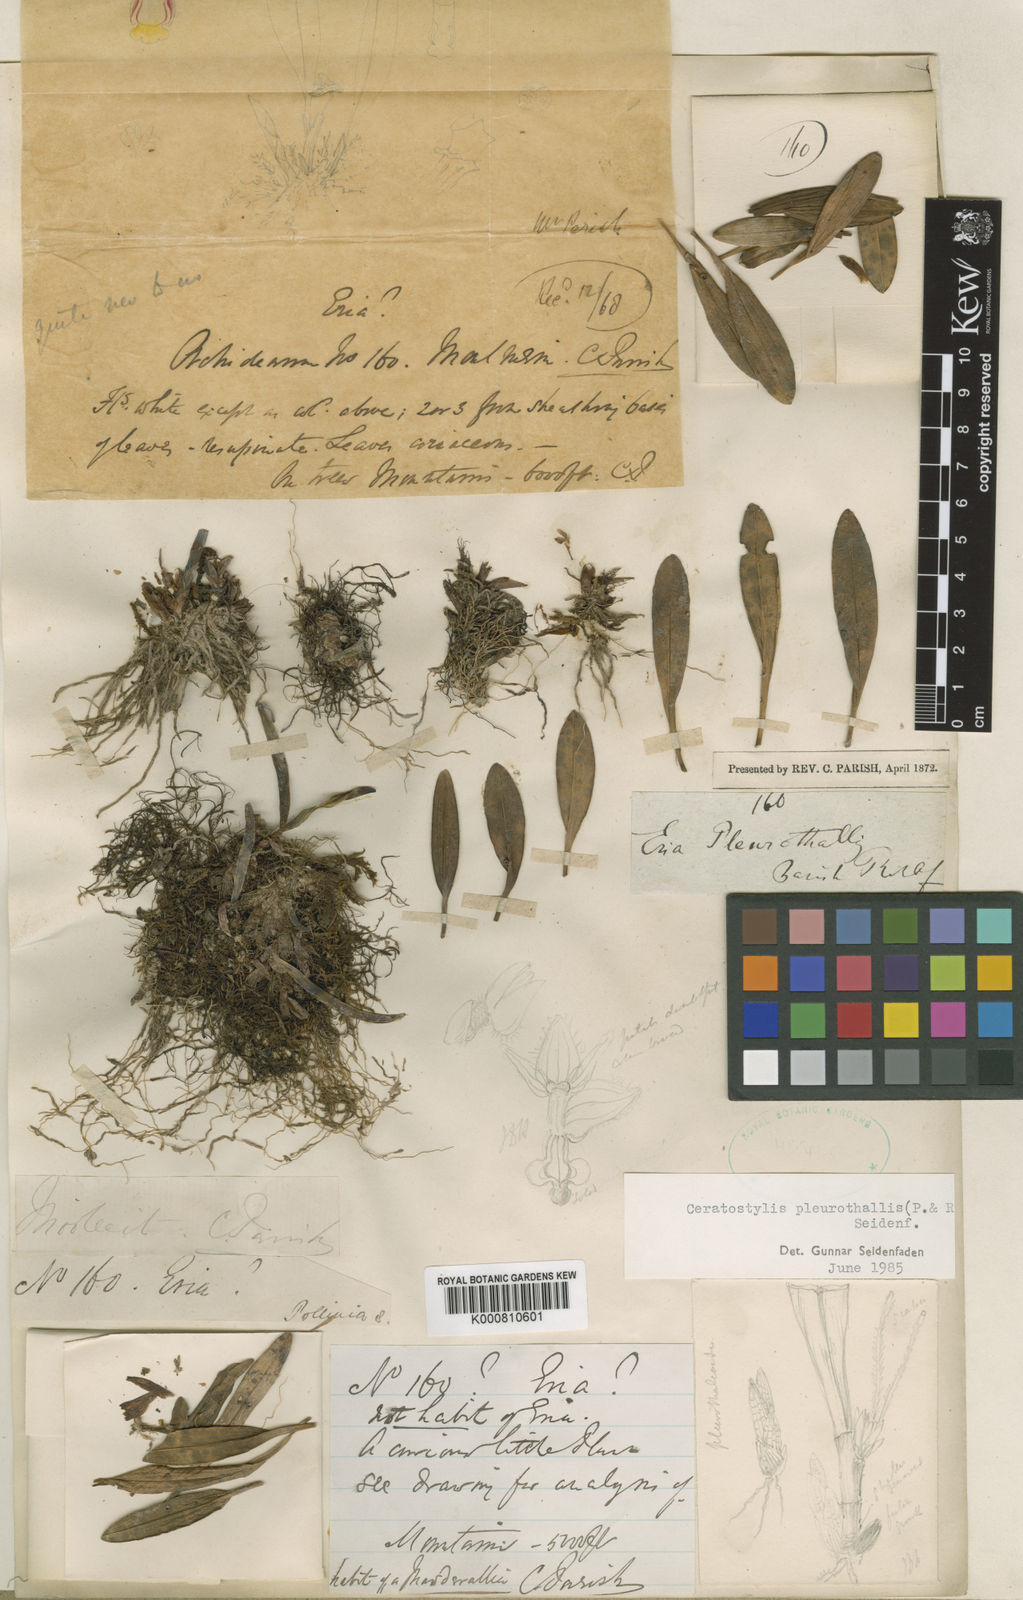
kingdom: Plantae
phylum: Tracheophyta
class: Liliopsida
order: Asparagales
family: Orchidaceae
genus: Ceratostylis
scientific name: Ceratostylis pleurothallis
